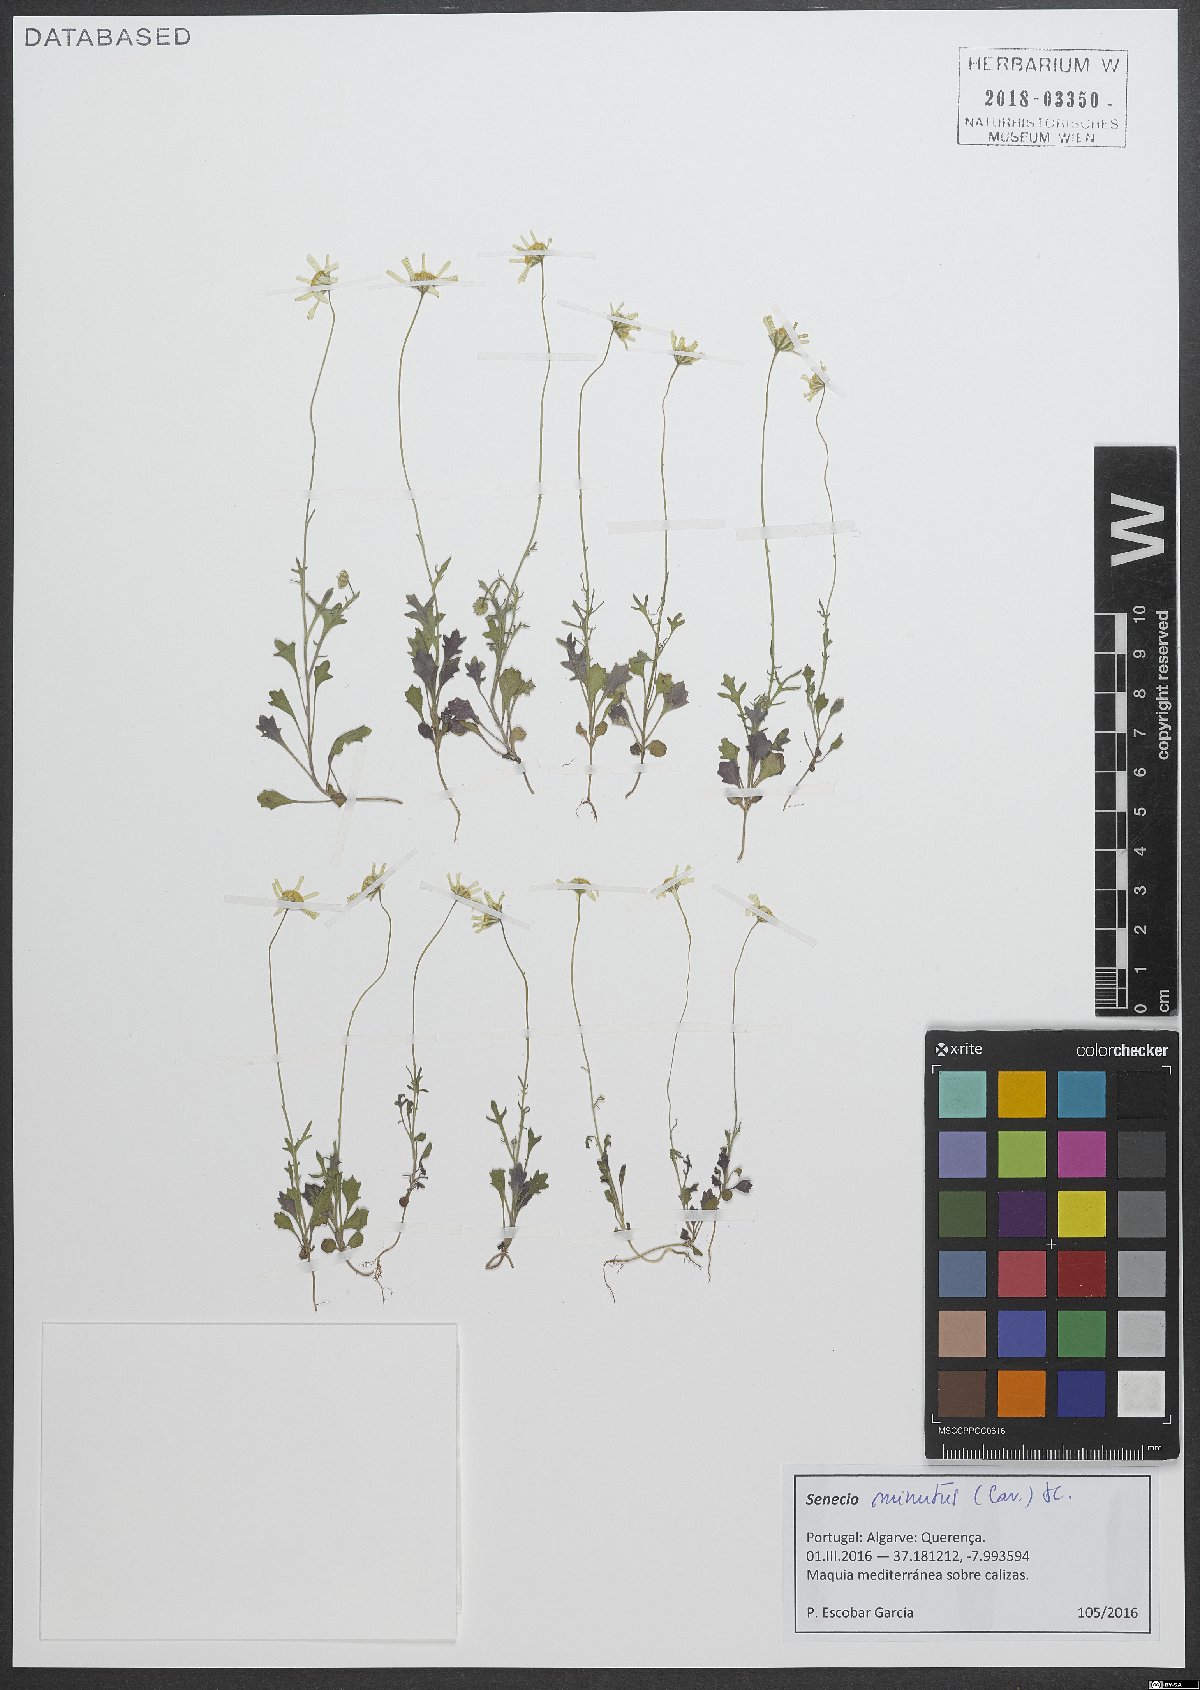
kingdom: Plantae
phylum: Tracheophyta
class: Magnoliopsida
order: Asterales
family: Asteraceae
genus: Jacobaea
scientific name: Jacobaea minuta
